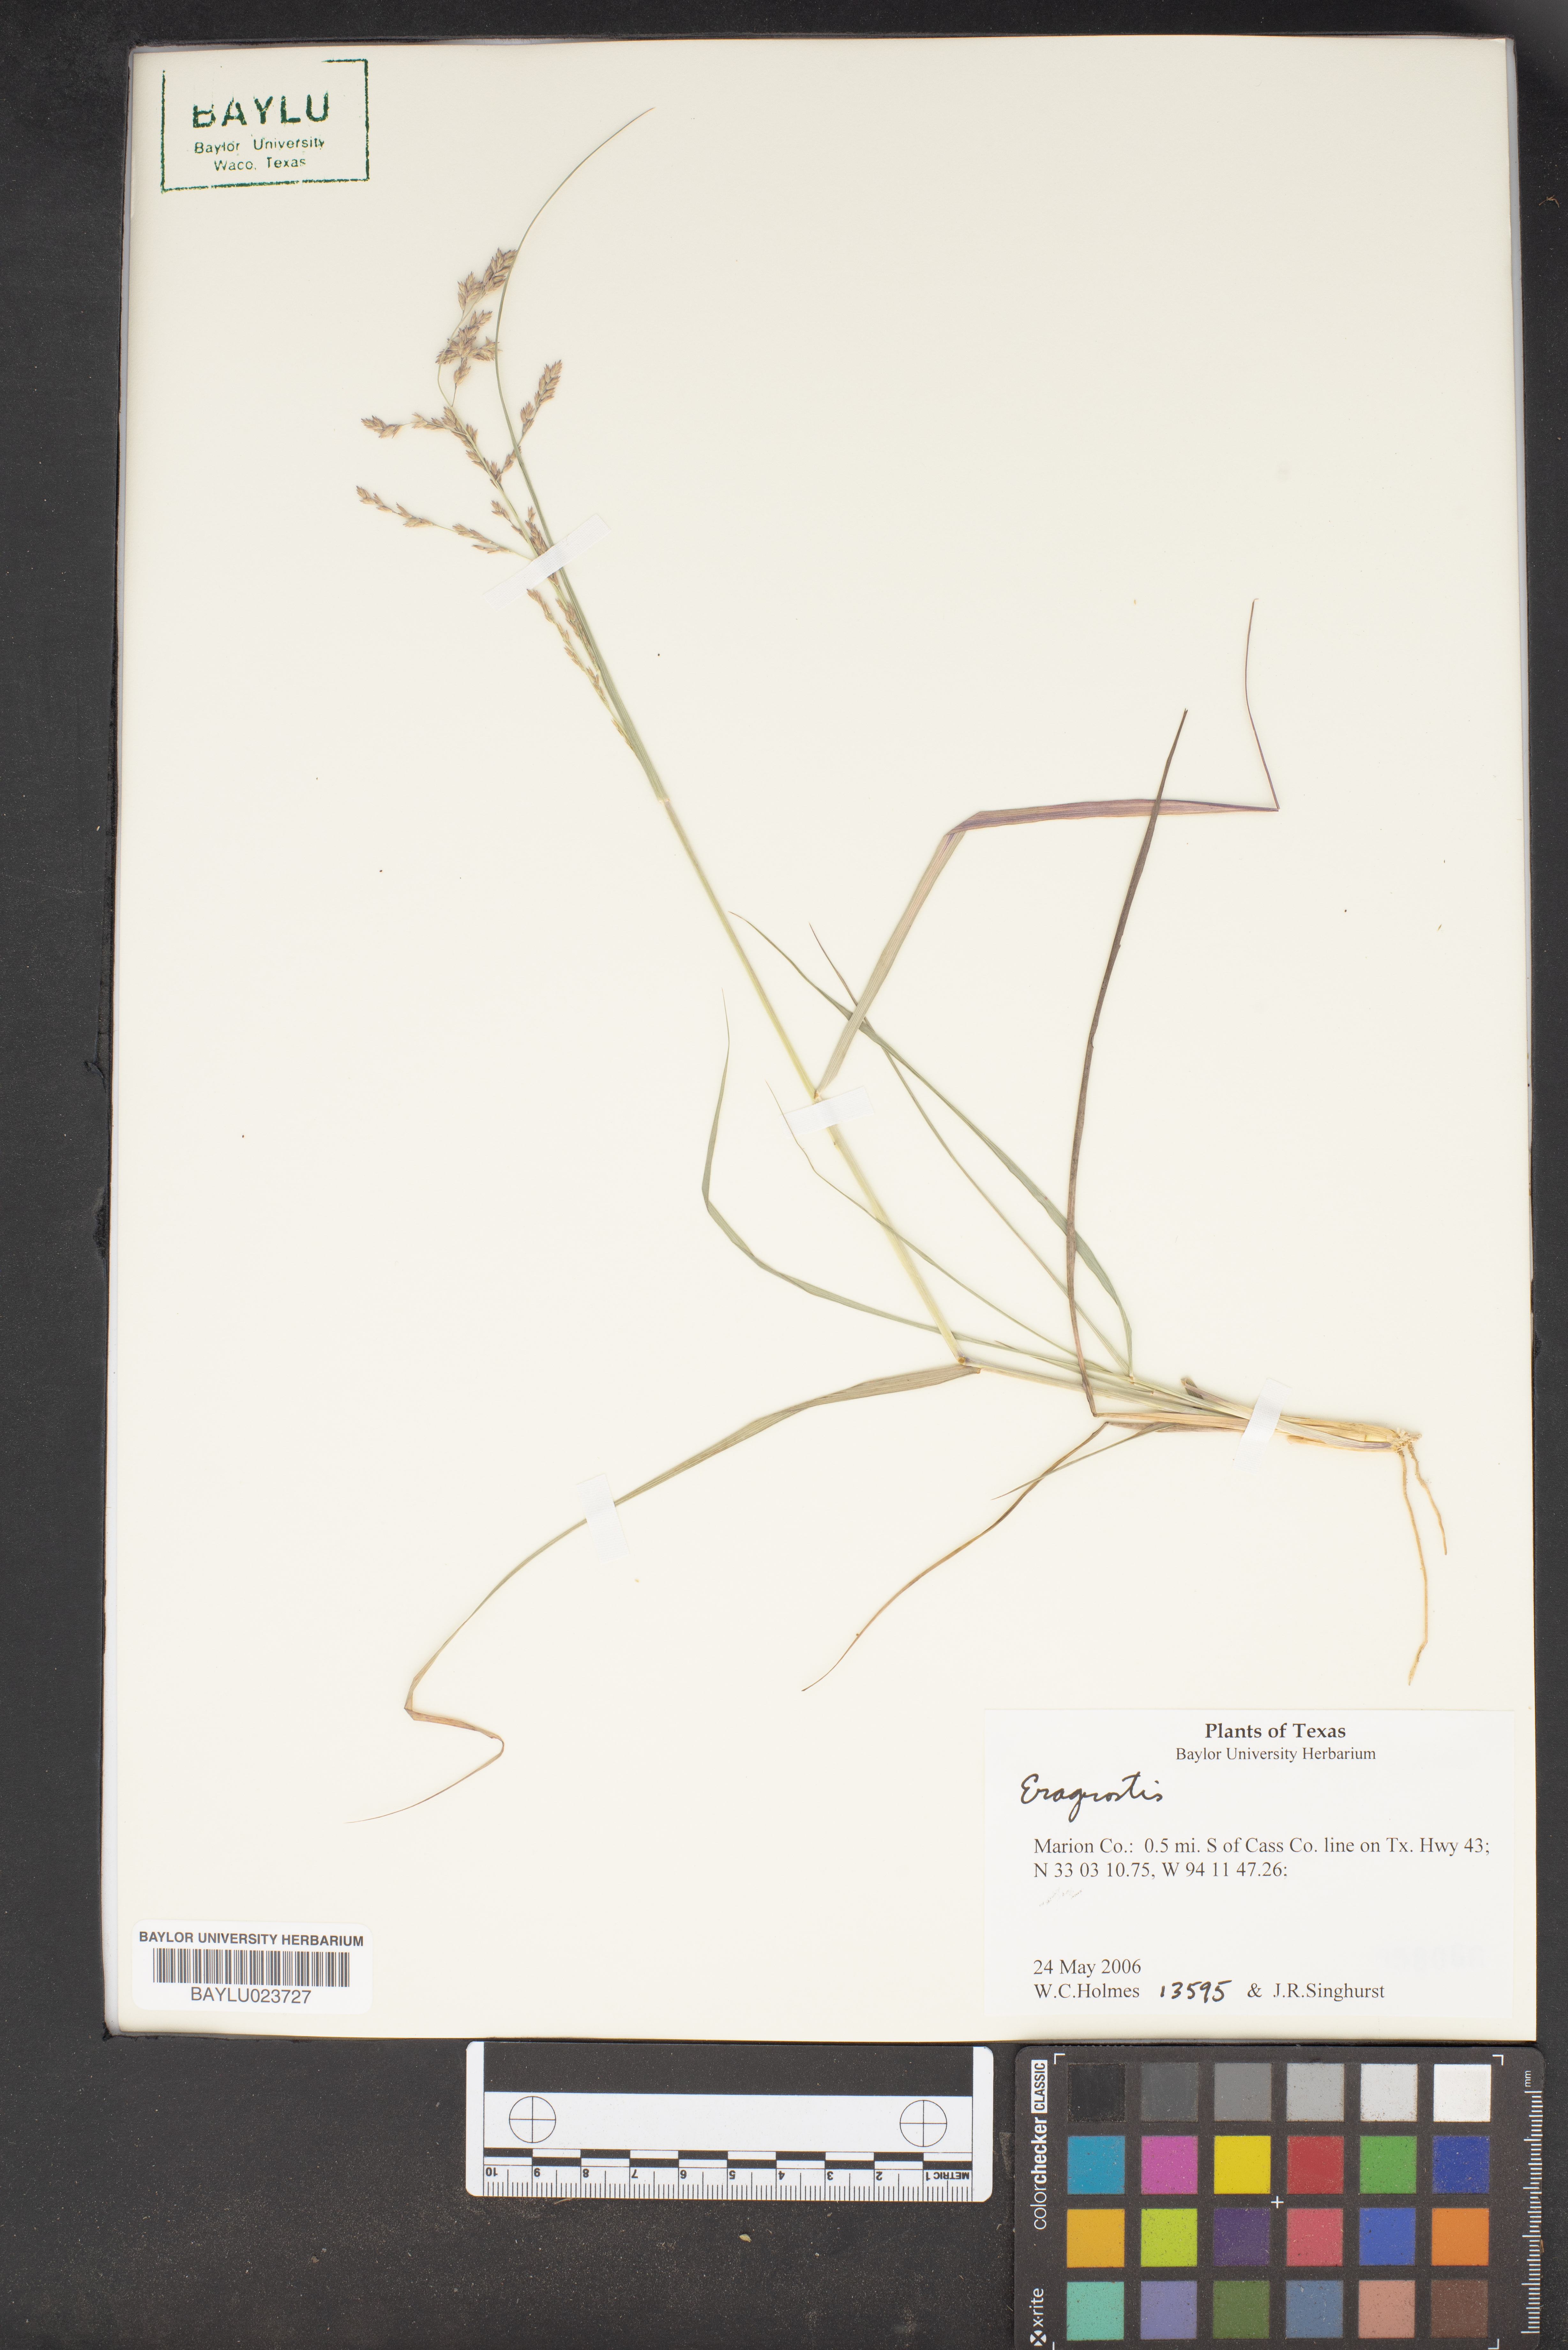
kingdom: Plantae
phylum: Tracheophyta
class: Liliopsida
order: Poales
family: Poaceae
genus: Eragrostis
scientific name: Eragrostis
